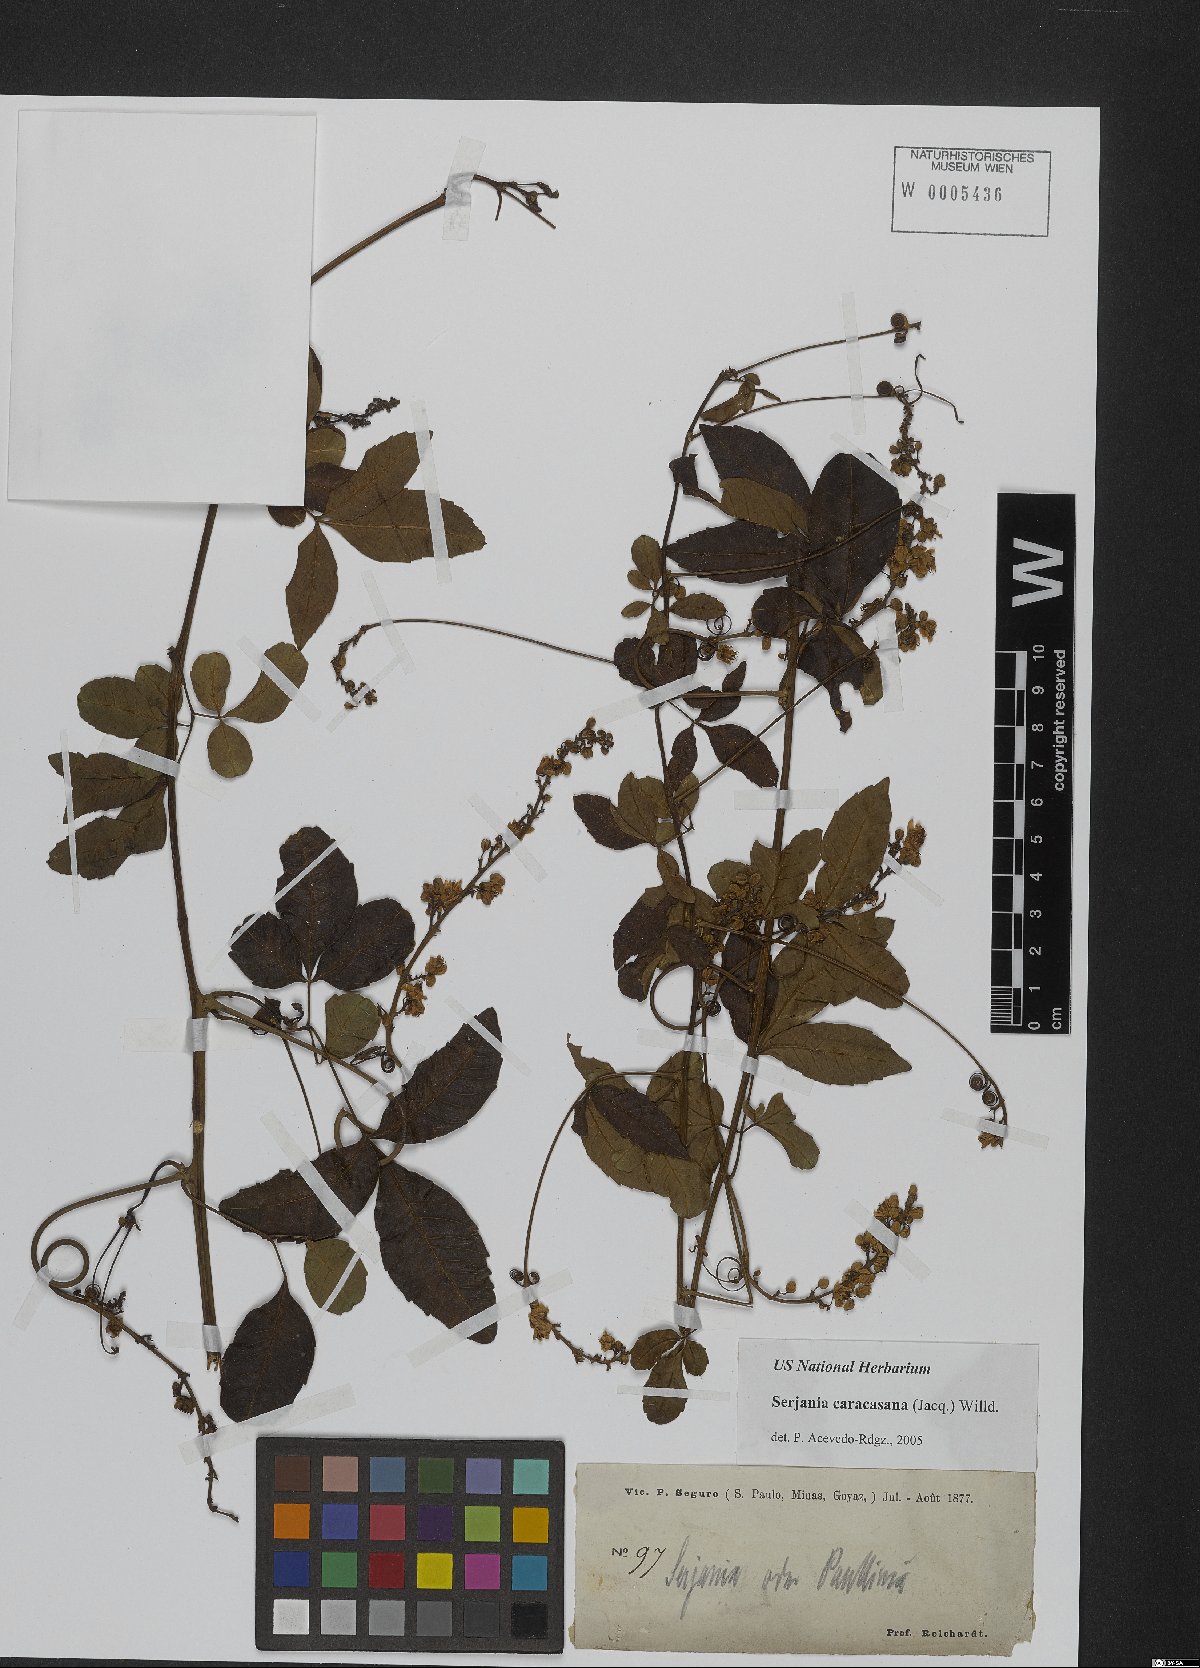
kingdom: Plantae
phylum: Tracheophyta
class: Magnoliopsida
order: Sapindales
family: Sapindaceae
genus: Serjania
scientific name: Serjania caracasana
